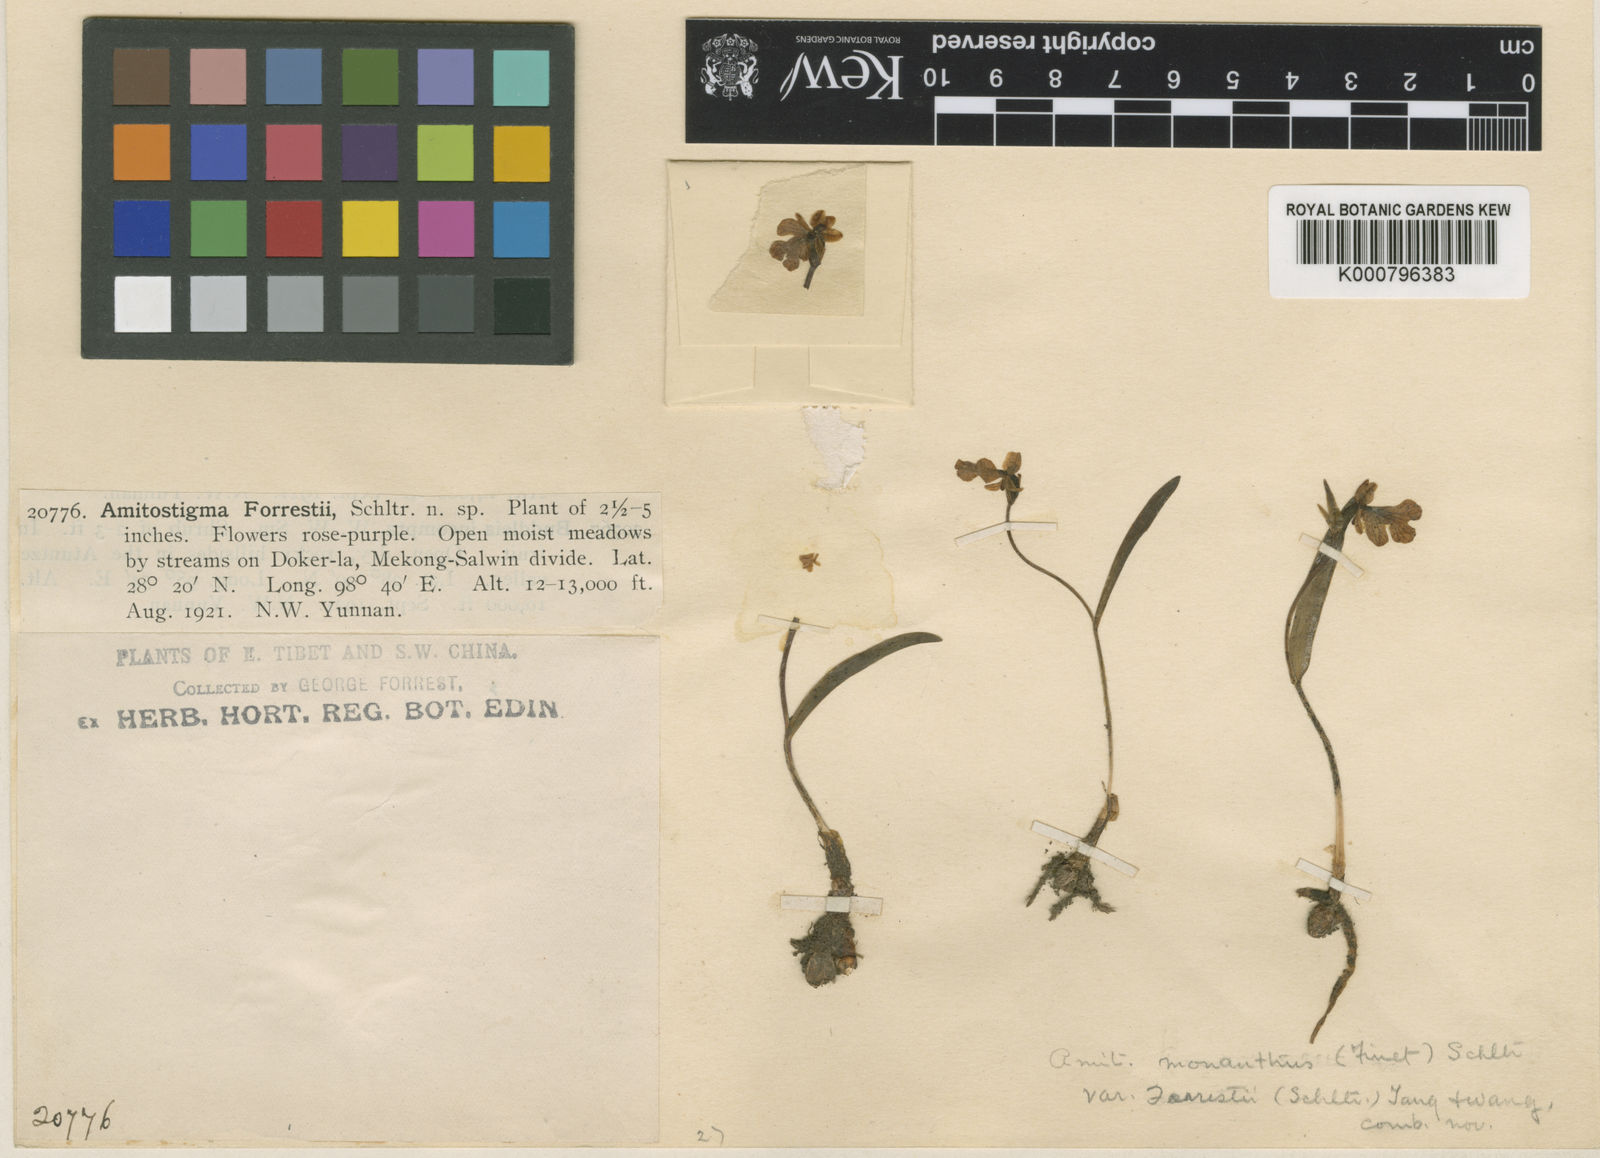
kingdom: Plantae
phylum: Tracheophyta
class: Liliopsida
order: Asparagales
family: Orchidaceae
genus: Hemipilia
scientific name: Hemipilia monantha
